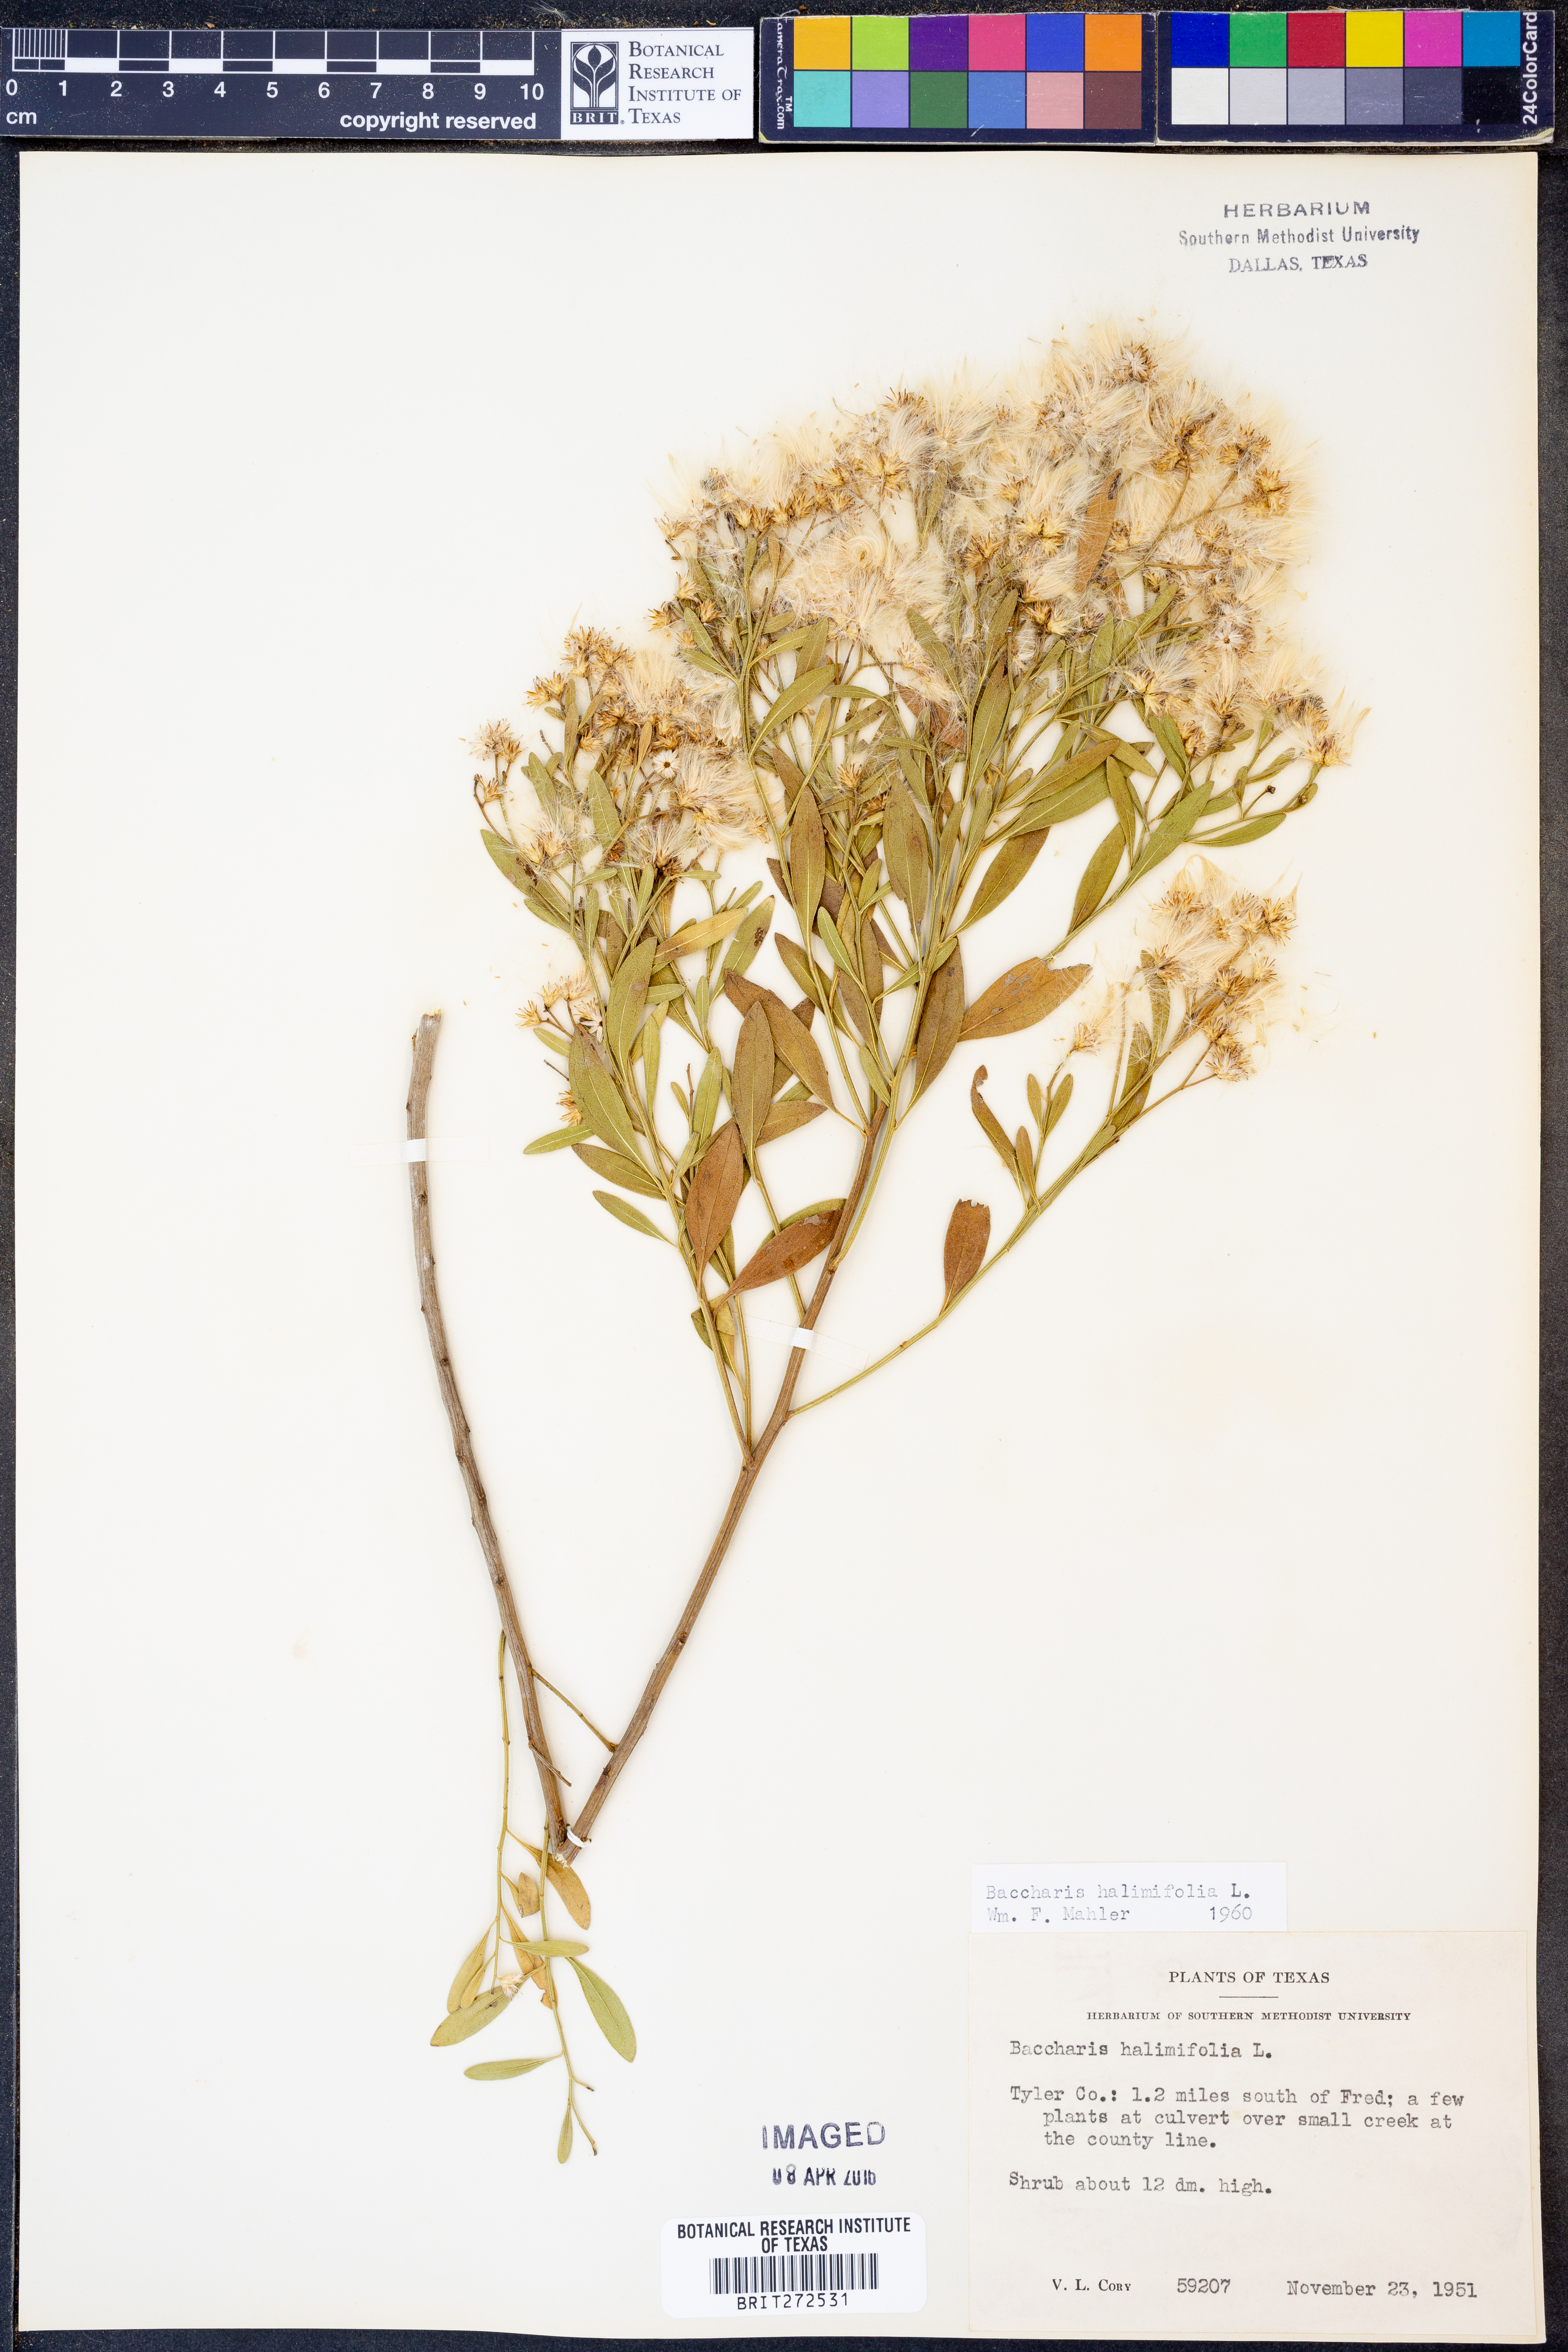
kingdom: Plantae
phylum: Tracheophyta
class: Magnoliopsida
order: Asterales
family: Asteraceae
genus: Nidorella
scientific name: Nidorella ivifolia
